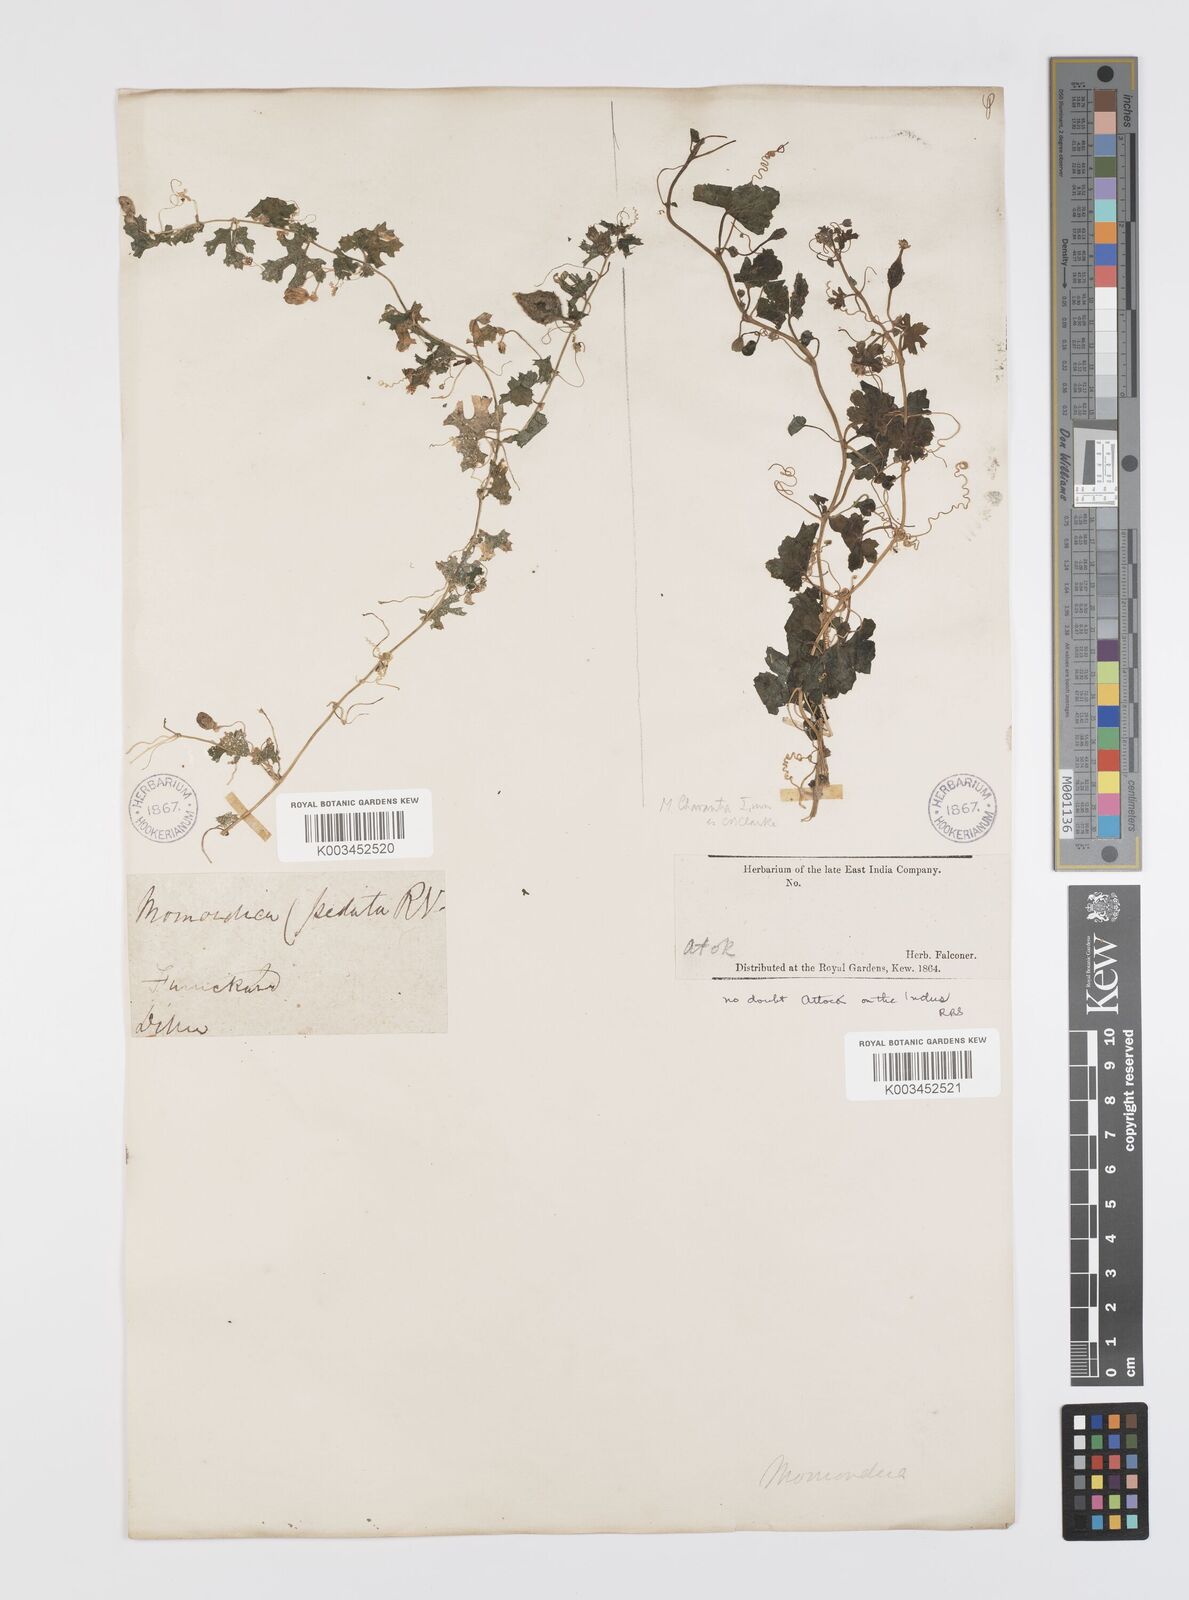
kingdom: Plantae
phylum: Tracheophyta
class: Magnoliopsida
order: Cucurbitales
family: Cucurbitaceae
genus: Momordica
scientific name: Momordica balsamina
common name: Southern balsampear
